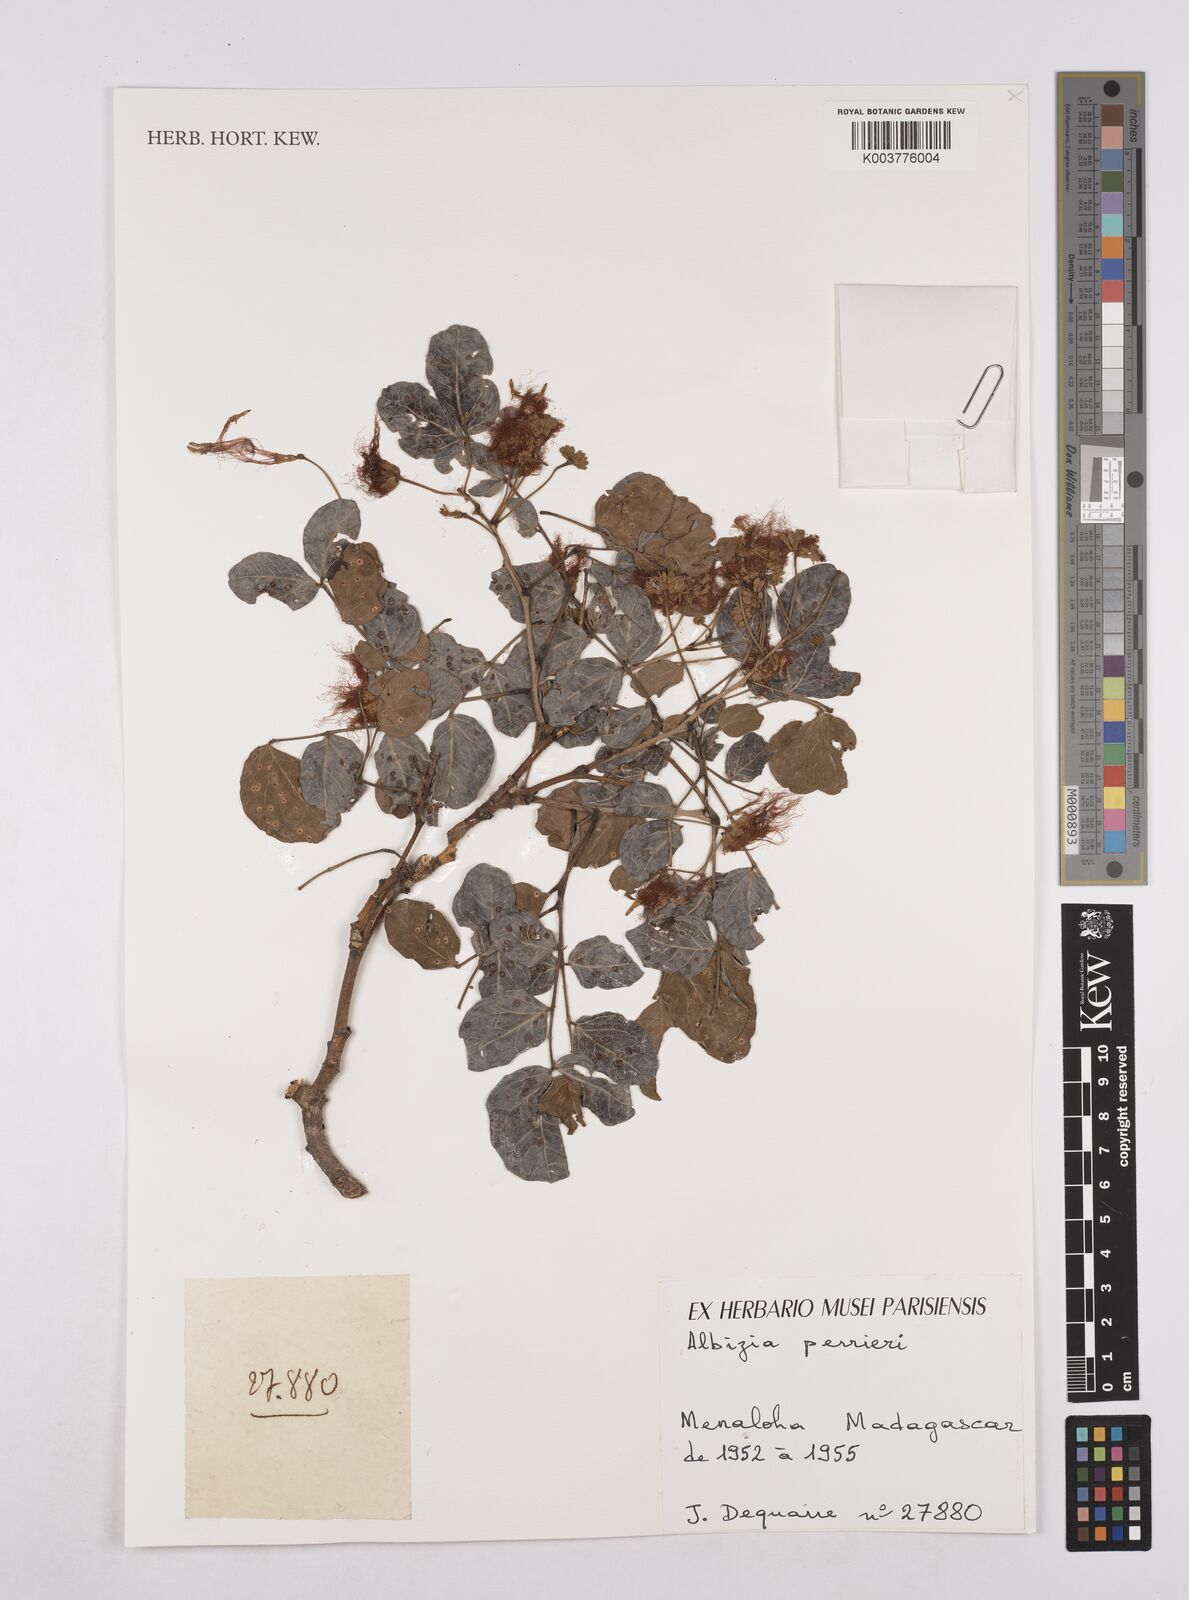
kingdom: Plantae
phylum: Tracheophyta
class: Magnoliopsida
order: Fabales
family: Fabaceae
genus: Albizia
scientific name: Albizia perrieri
